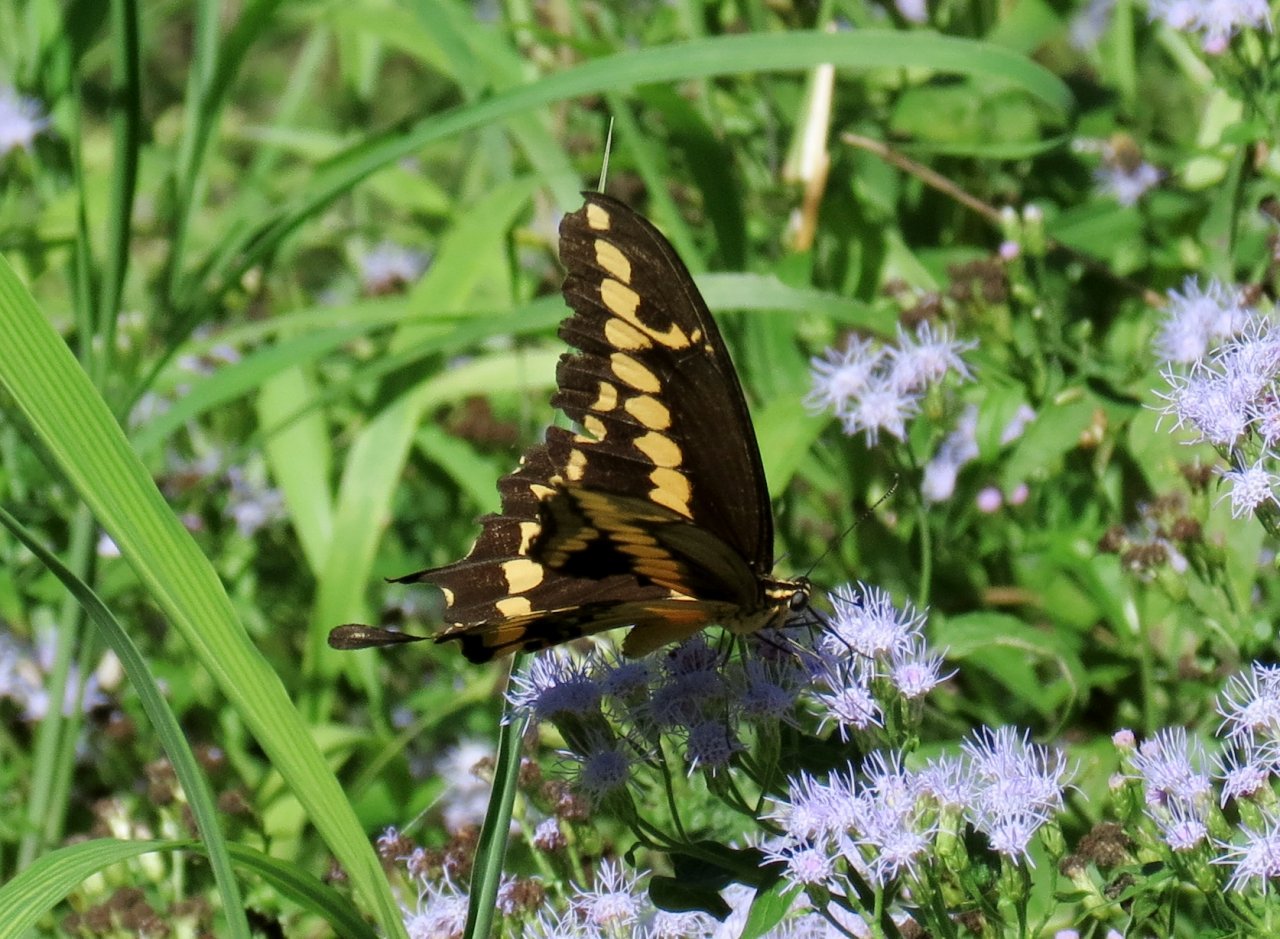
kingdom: Animalia
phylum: Arthropoda
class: Insecta
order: Lepidoptera
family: Papilionidae
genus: Papilio
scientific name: Papilio rumiko
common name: Western Giant Swallowtail
